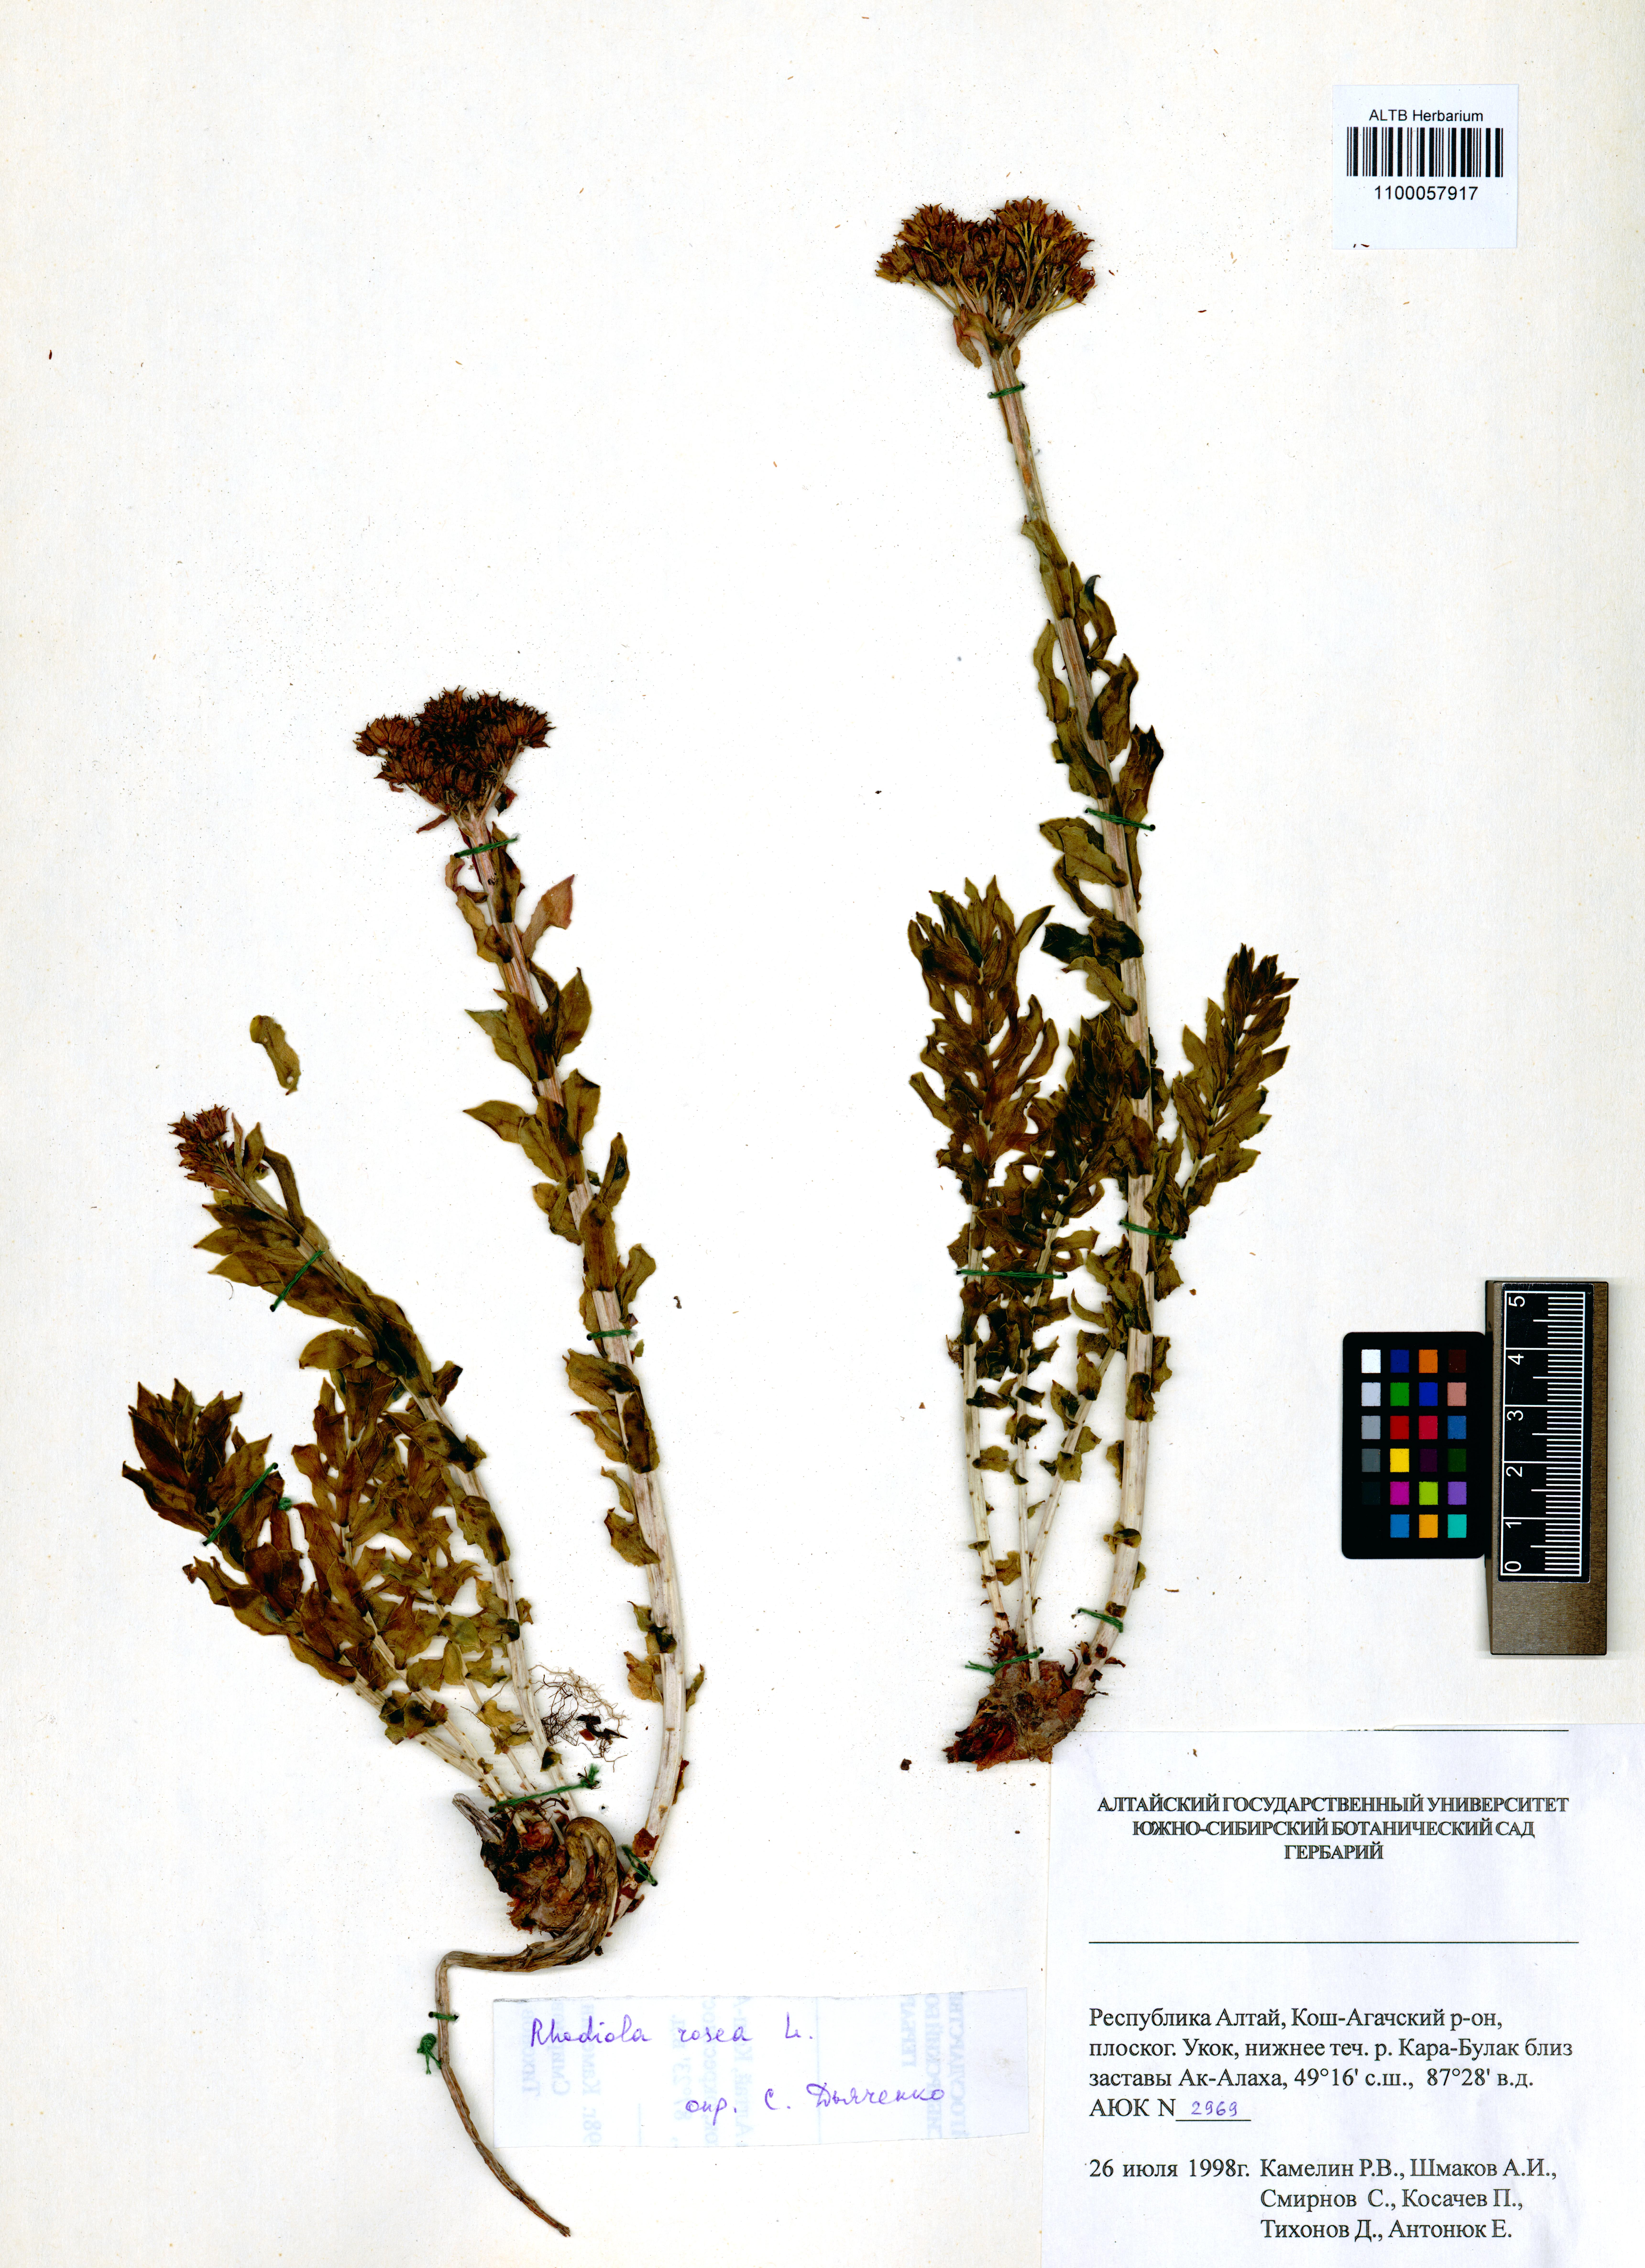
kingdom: Plantae
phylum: Tracheophyta
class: Magnoliopsida
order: Saxifragales
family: Crassulaceae
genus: Rhodiola
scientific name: Rhodiola rosea
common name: Roseroot
